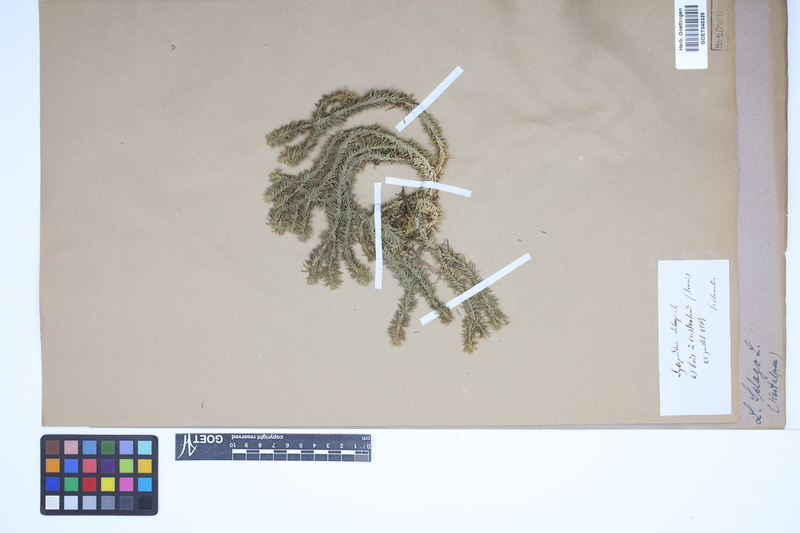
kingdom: Plantae
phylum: Tracheophyta
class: Lycopodiopsida
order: Lycopodiales
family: Lycopodiaceae
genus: Huperzia
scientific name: Huperzia selago
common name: Northern firmoss
